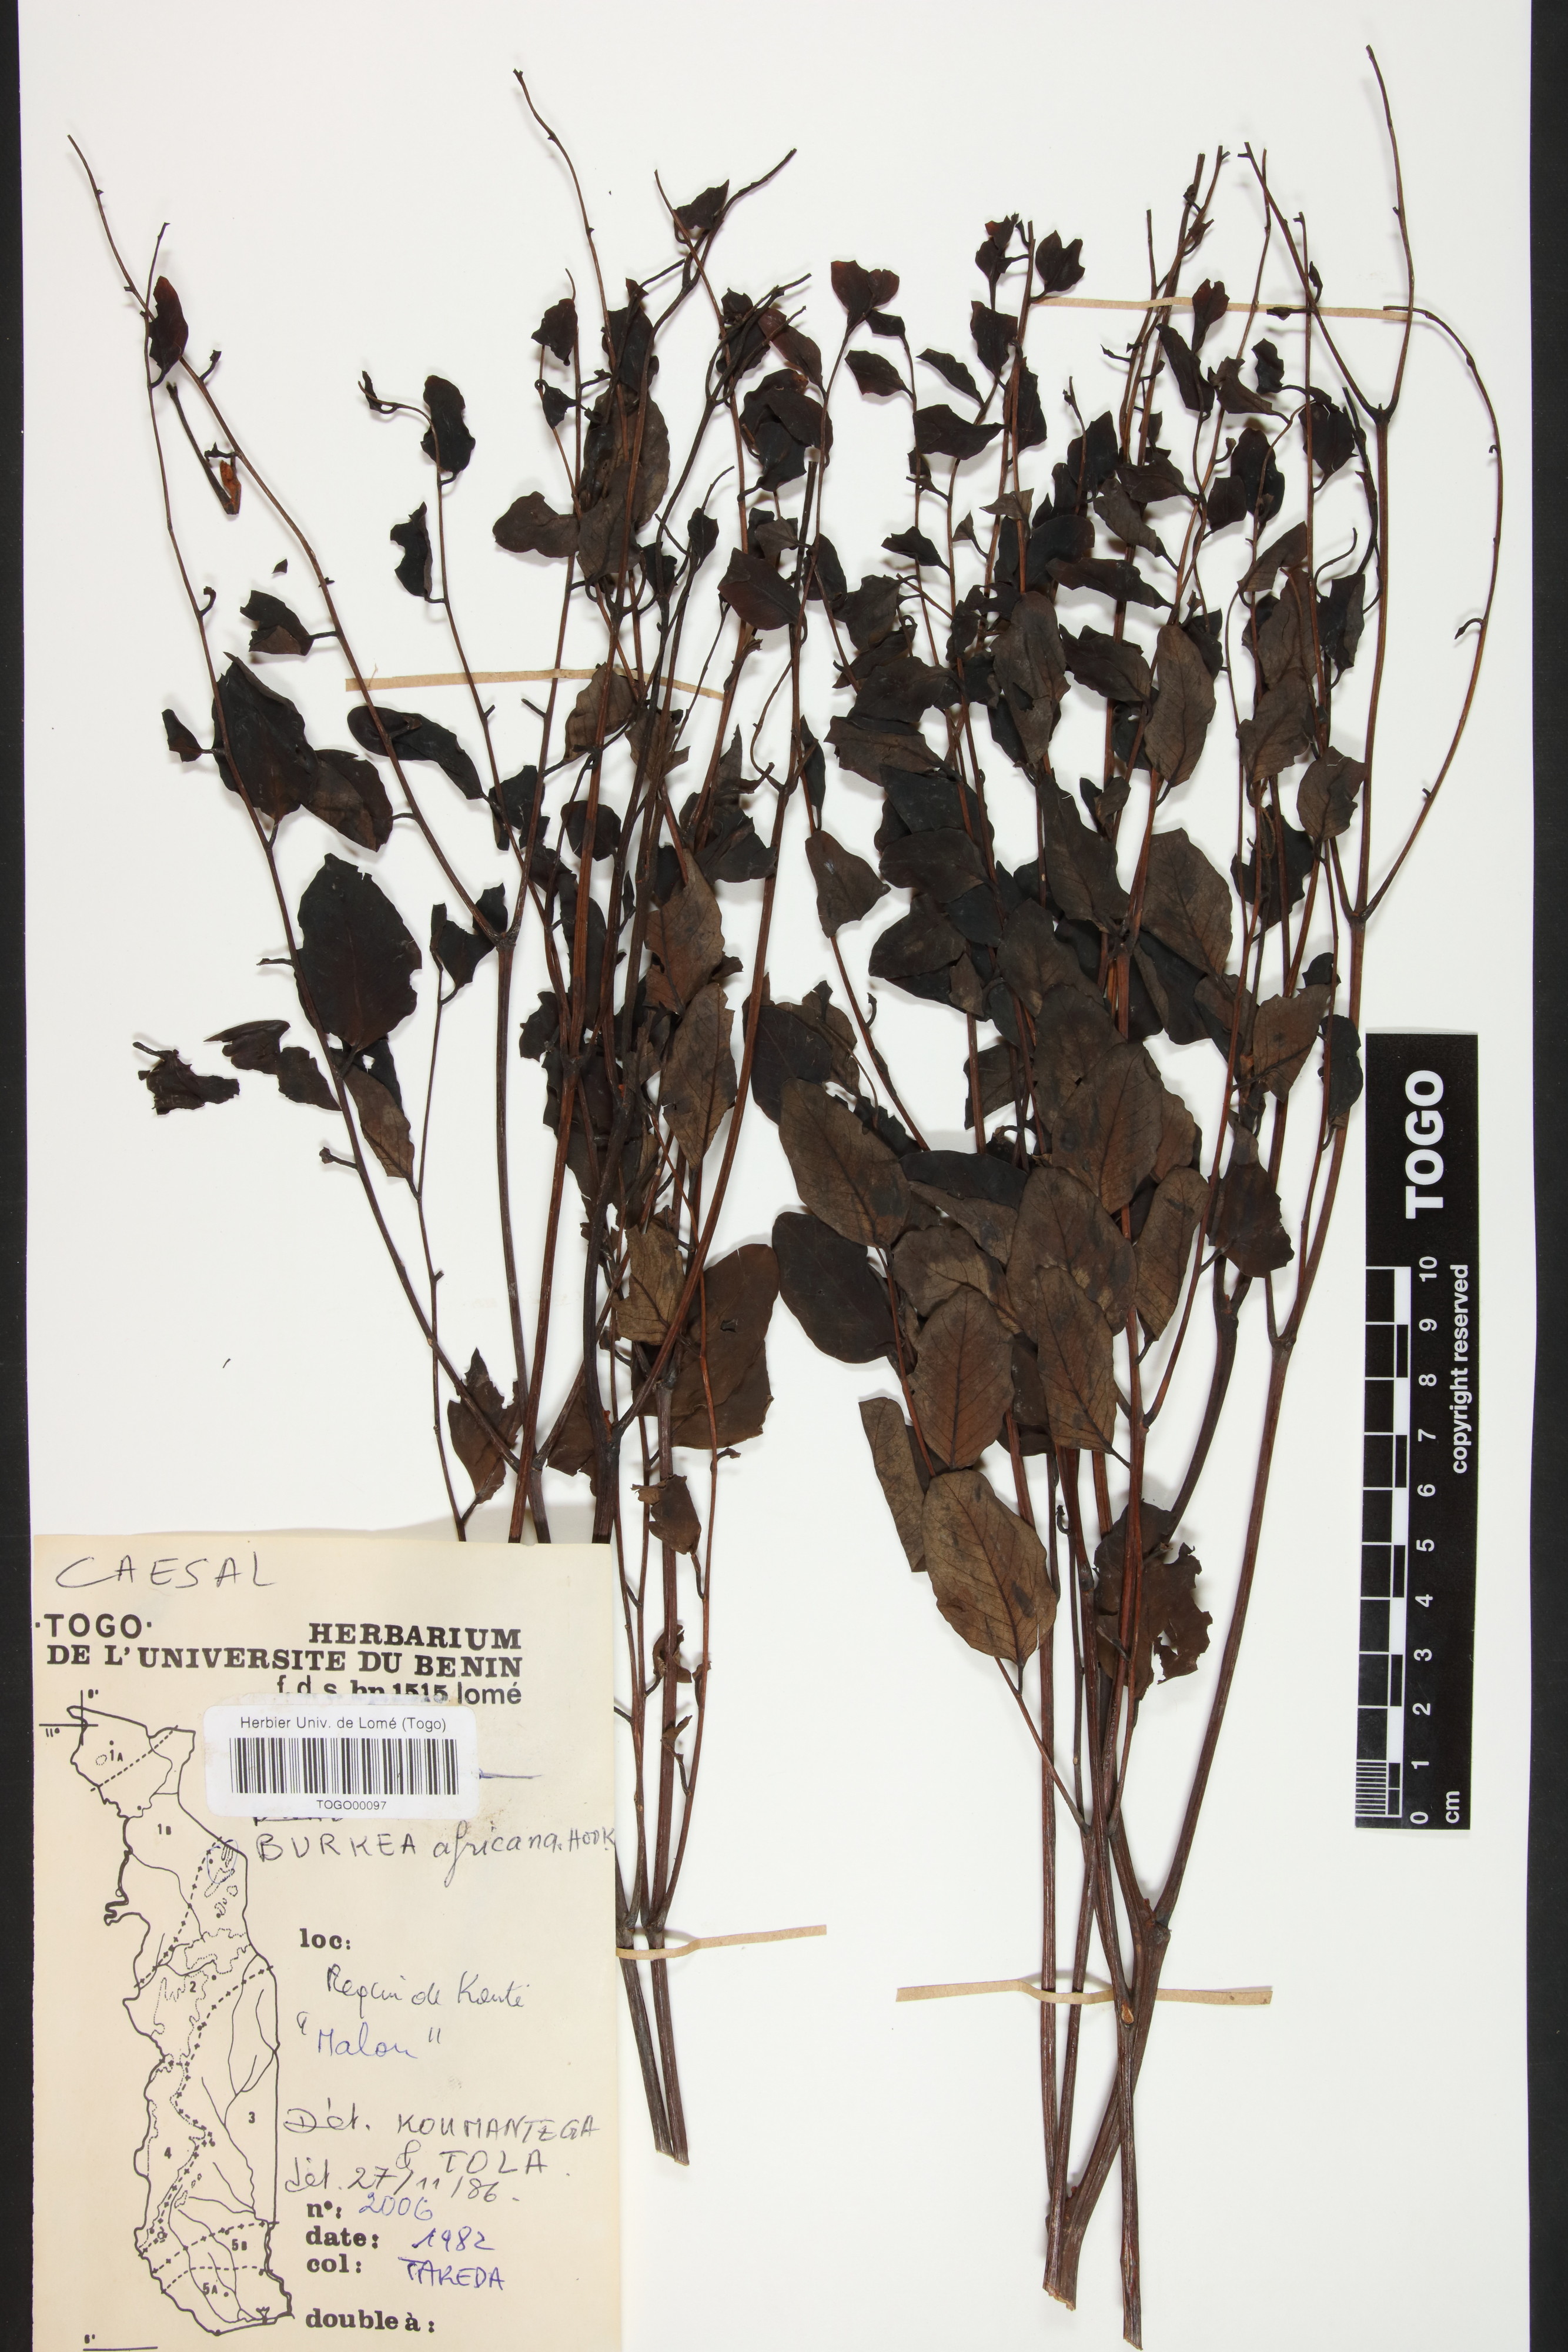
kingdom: Plantae
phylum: Tracheophyta
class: Magnoliopsida
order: Fabales
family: Fabaceae
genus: Burkea
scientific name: Burkea africana
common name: Mkalati tree
